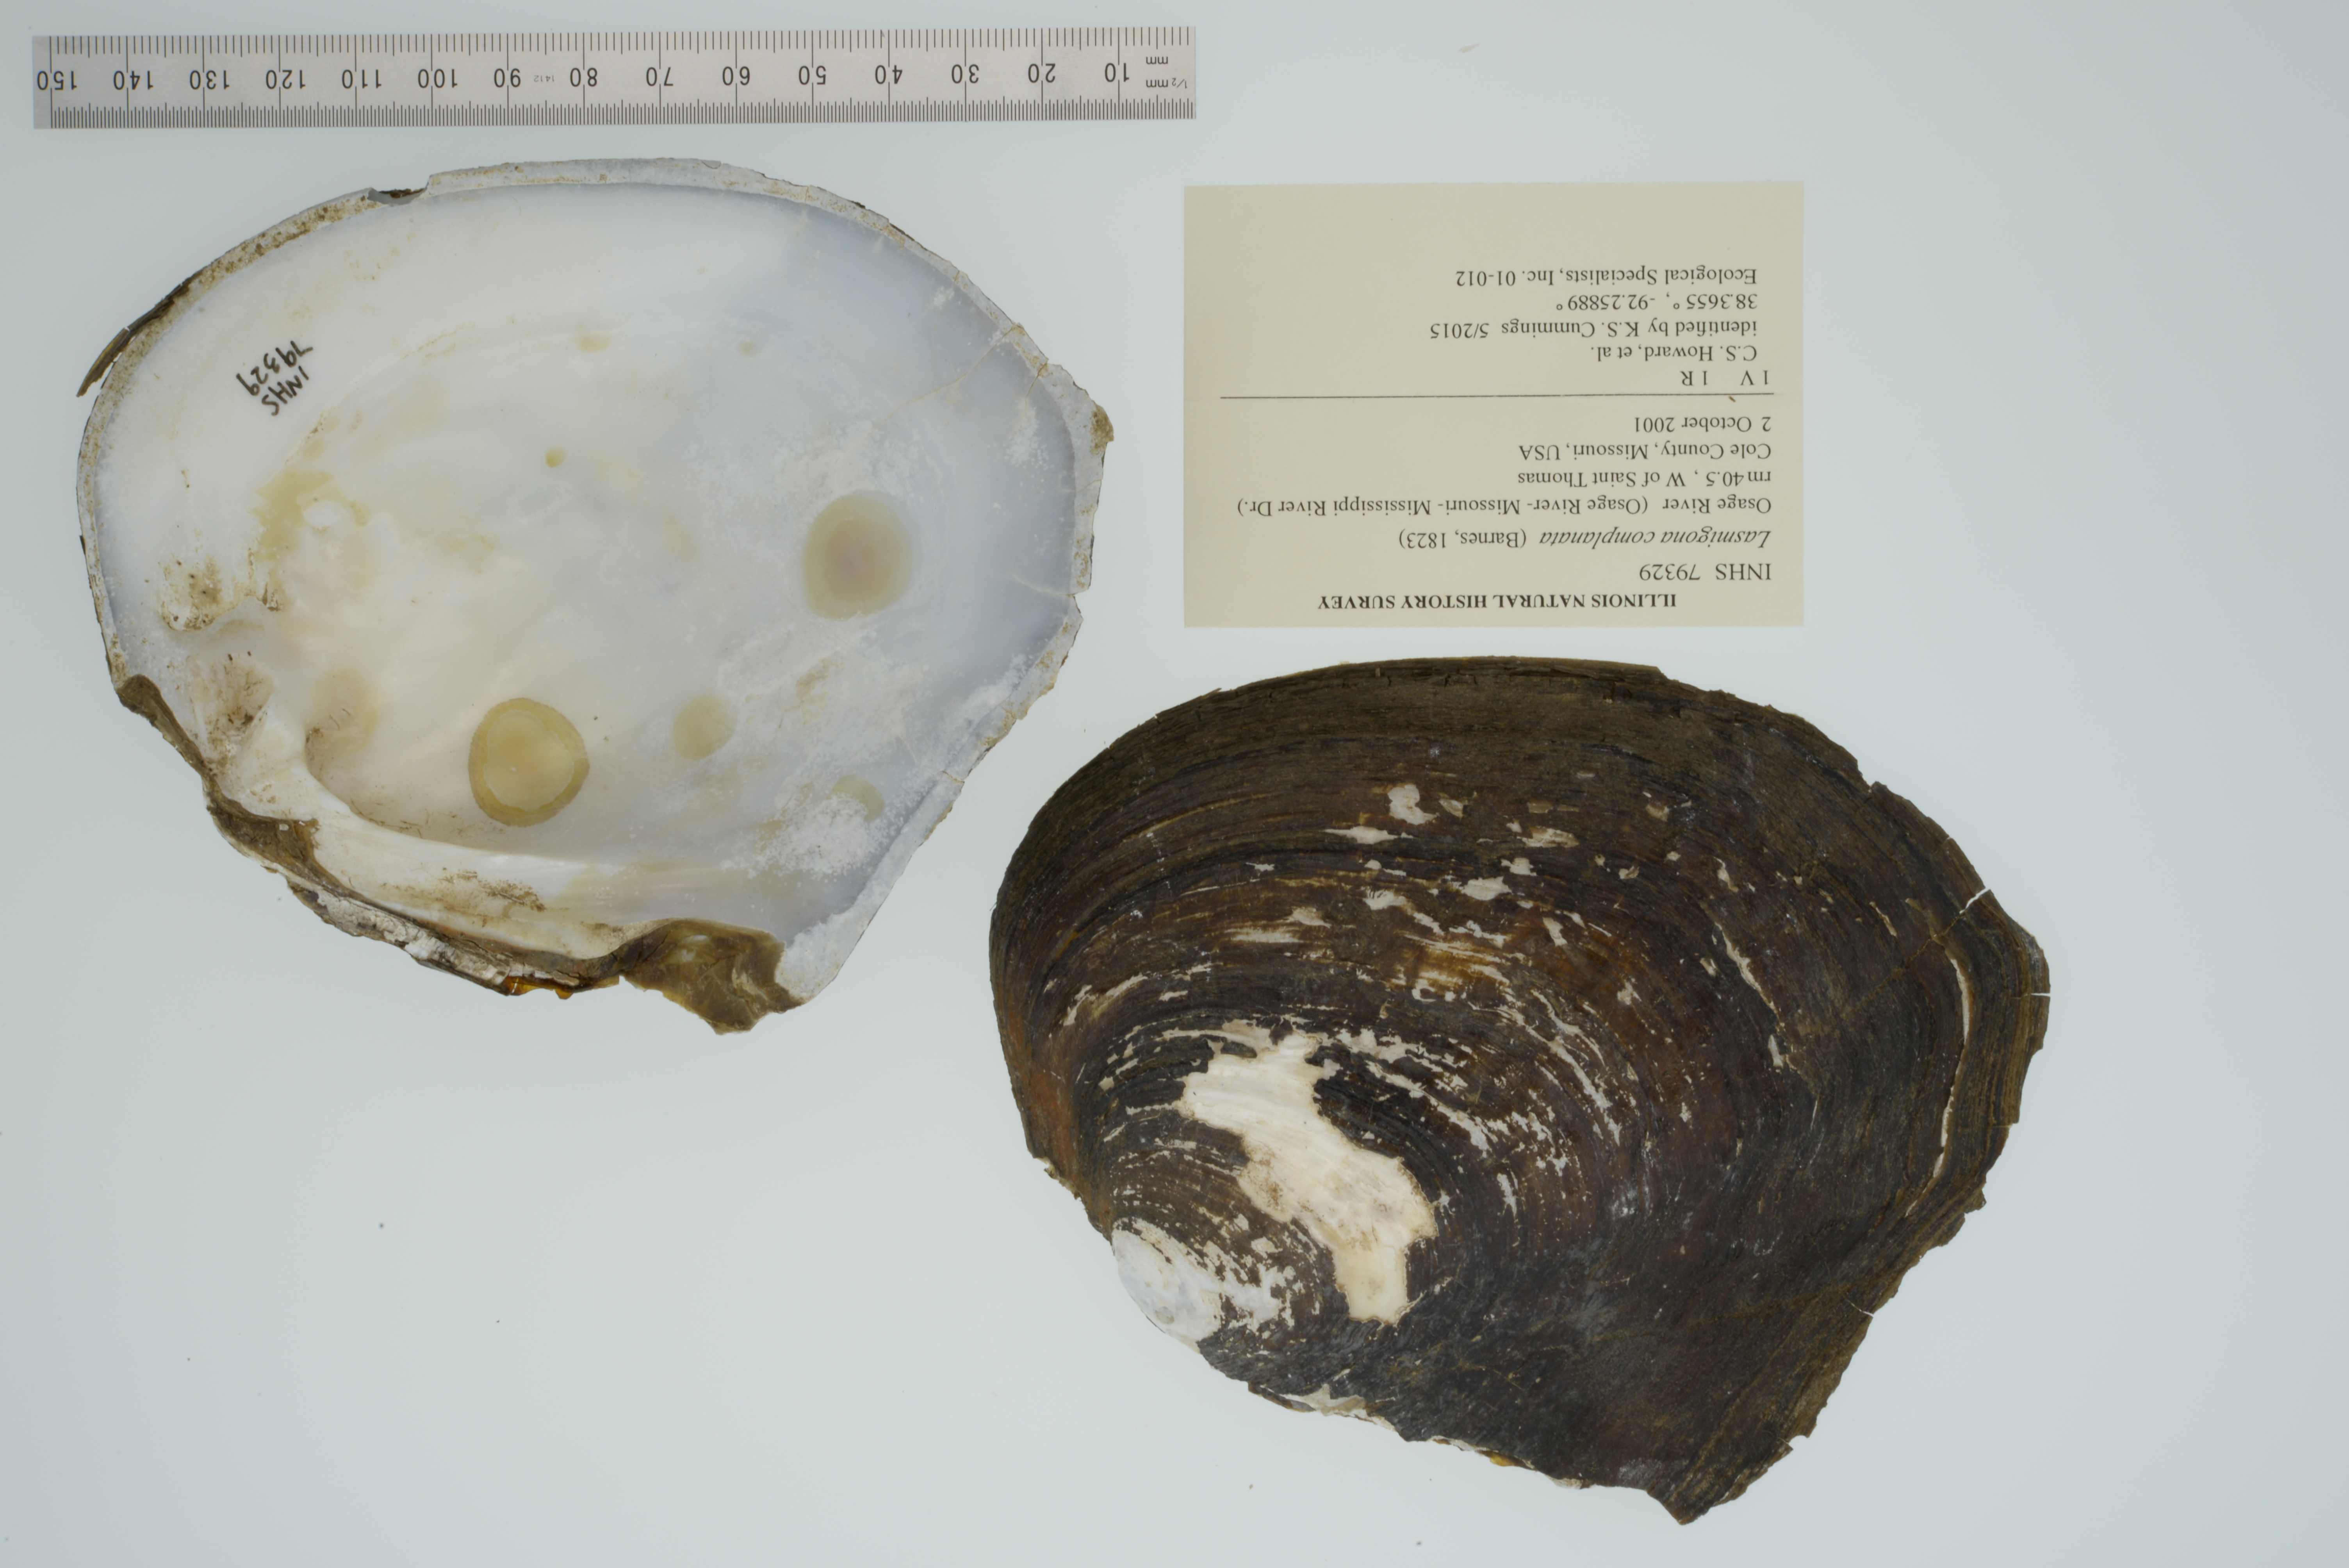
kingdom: Animalia
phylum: Mollusca
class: Bivalvia
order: Unionida
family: Unionidae
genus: Lasmigona
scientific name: Lasmigona complanata
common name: White heelsplitter
